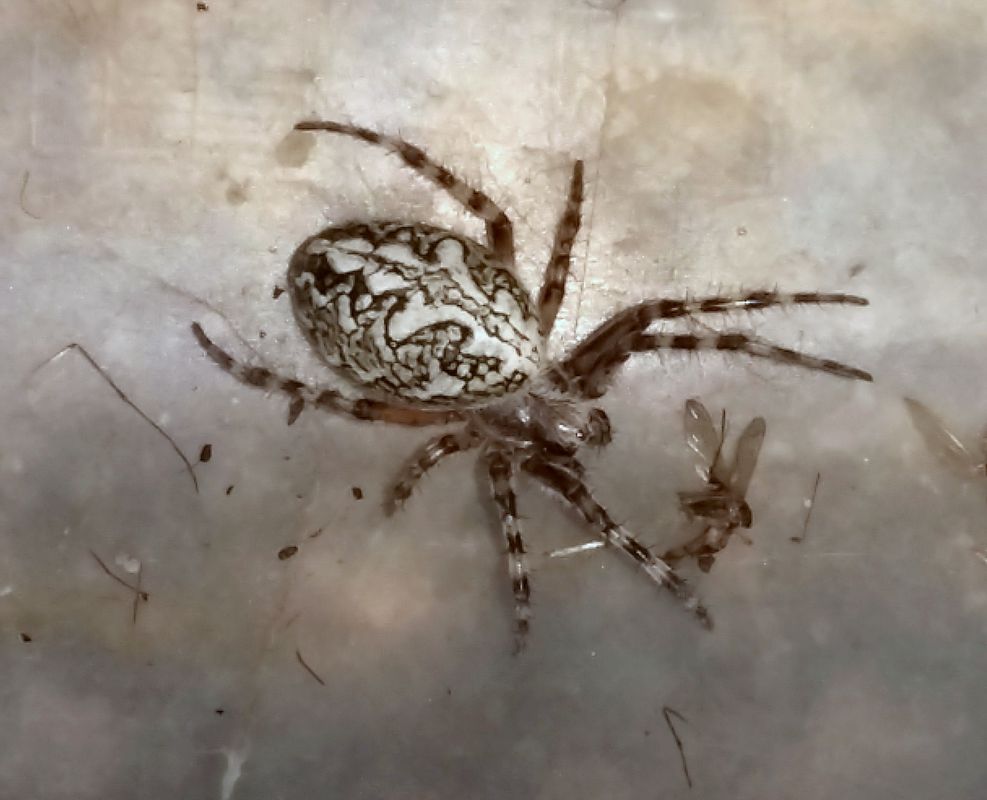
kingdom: Animalia
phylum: Arthropoda
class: Arachnida
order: Araneae
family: Araneidae
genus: Aculepeira
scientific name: Aculepeira ceropegia
